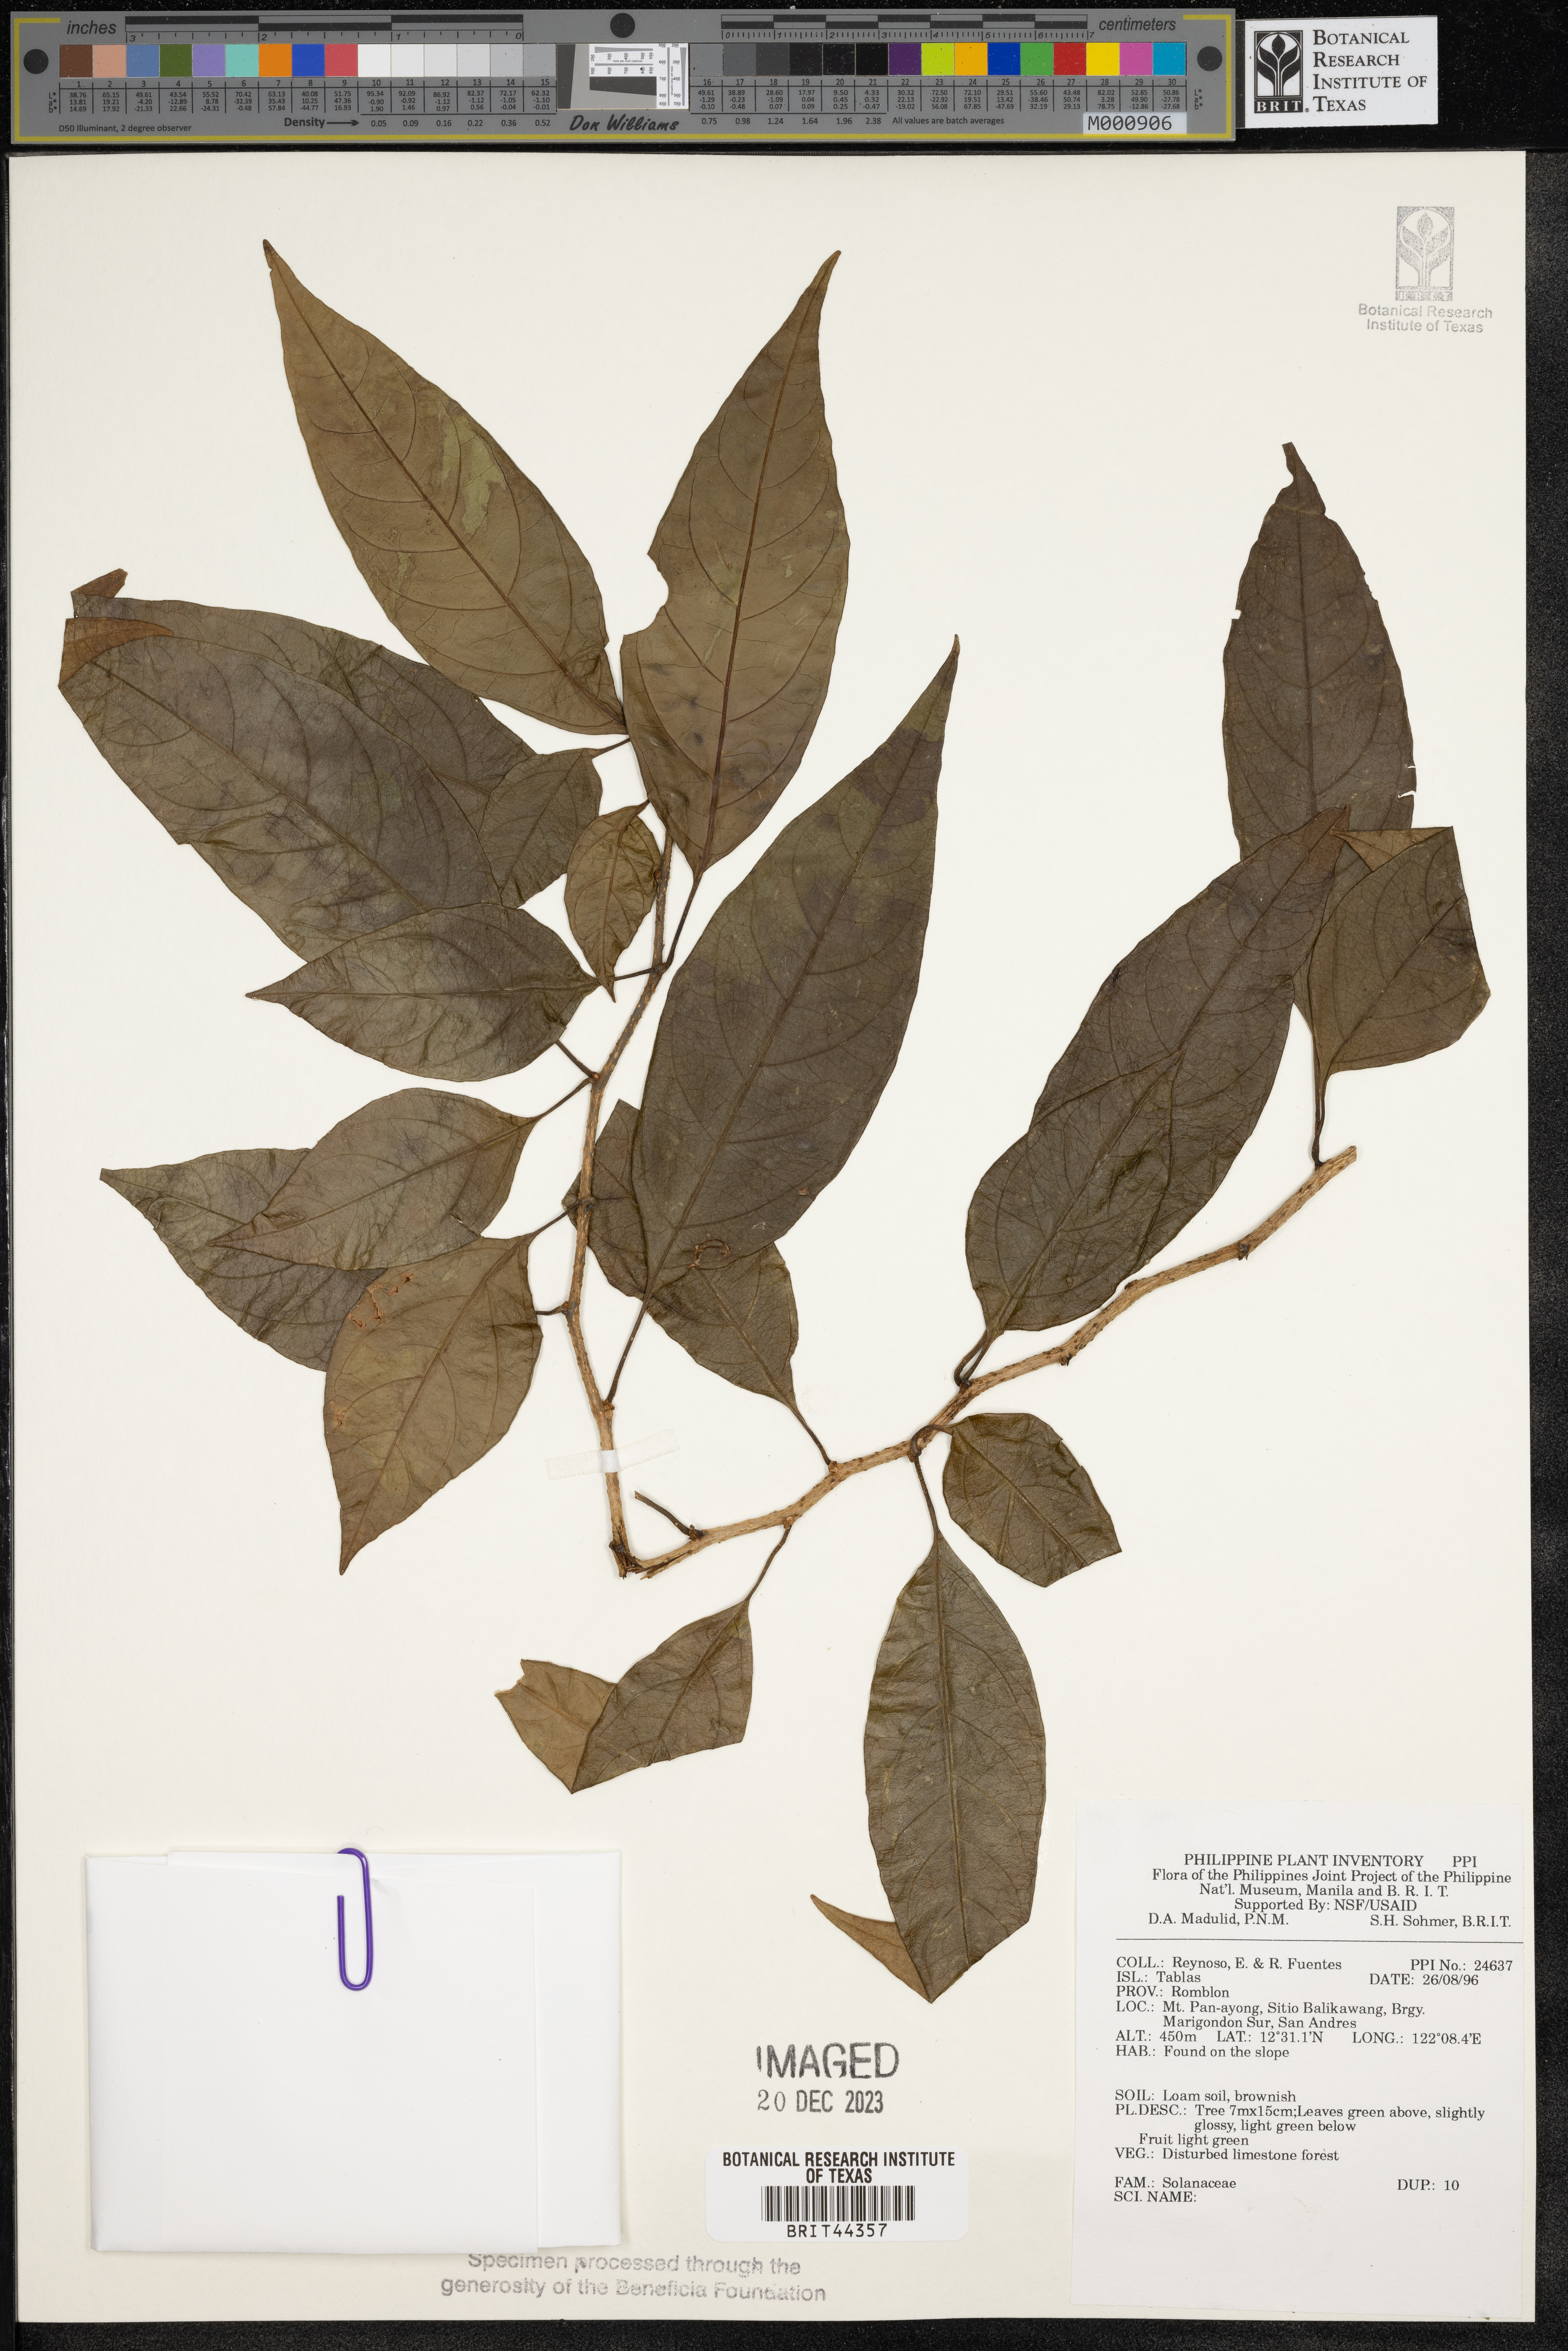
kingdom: Plantae
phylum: Tracheophyta
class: Magnoliopsida
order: Solanales
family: Solanaceae
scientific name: Solanaceae
